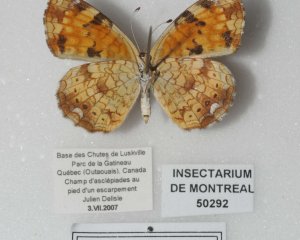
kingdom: Animalia
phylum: Arthropoda
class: Insecta
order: Lepidoptera
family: Nymphalidae
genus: Phyciodes
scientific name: Phyciodes tharos
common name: Pearl Crescent
